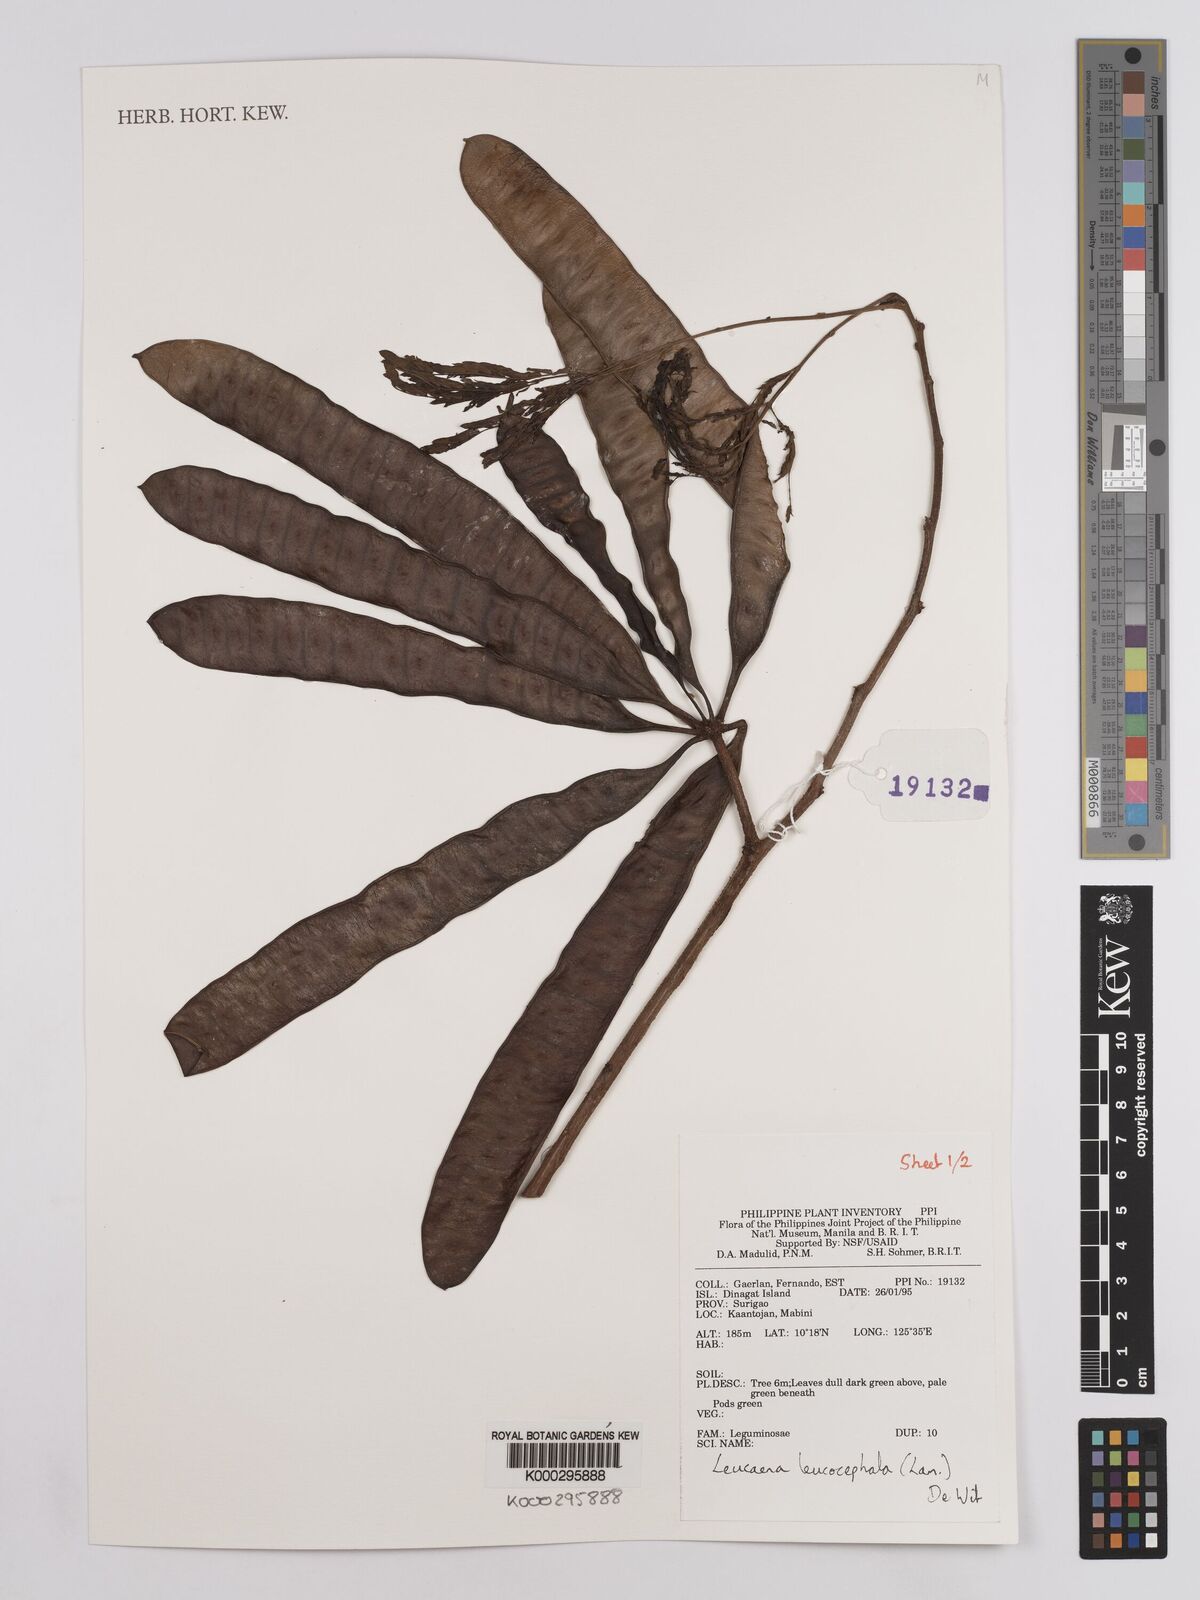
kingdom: Plantae
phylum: Tracheophyta
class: Magnoliopsida
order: Fabales
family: Fabaceae
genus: Leucaena
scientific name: Leucaena leucocephala
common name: White leadtree
